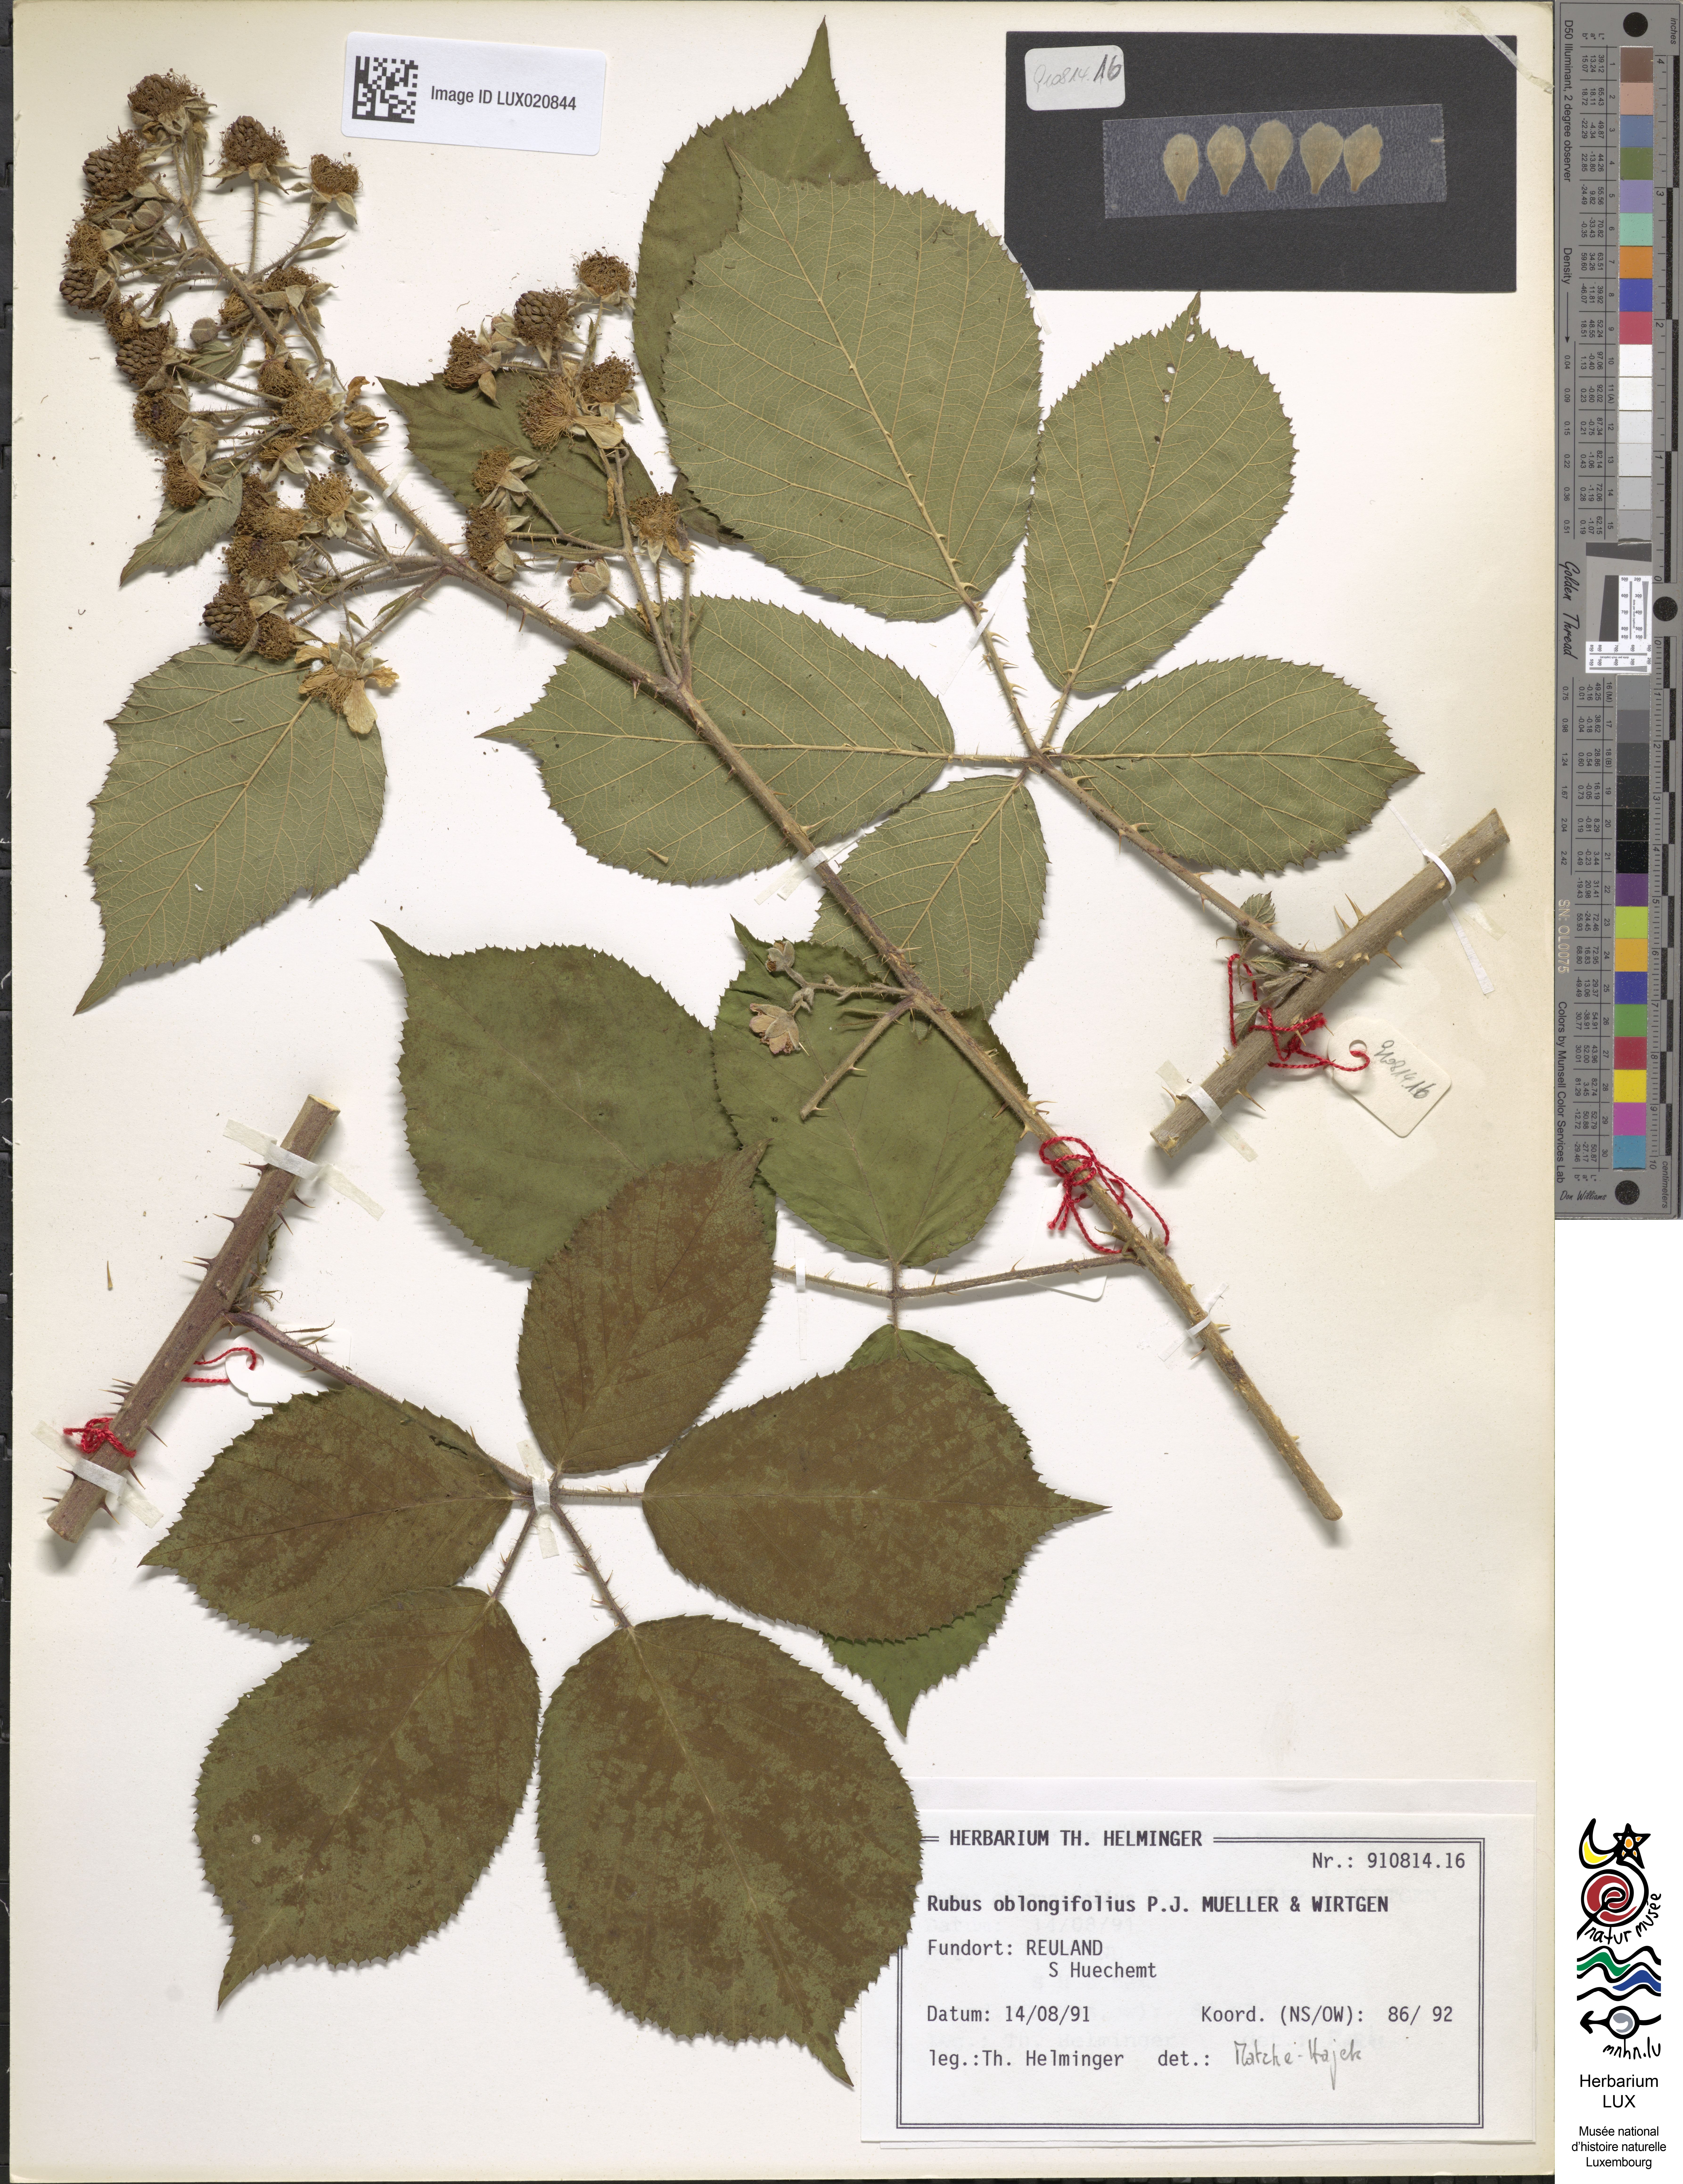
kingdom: Plantae
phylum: Tracheophyta
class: Magnoliopsida
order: Rosales
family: Rosaceae
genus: Rubus
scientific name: Rubus oblongifolius
